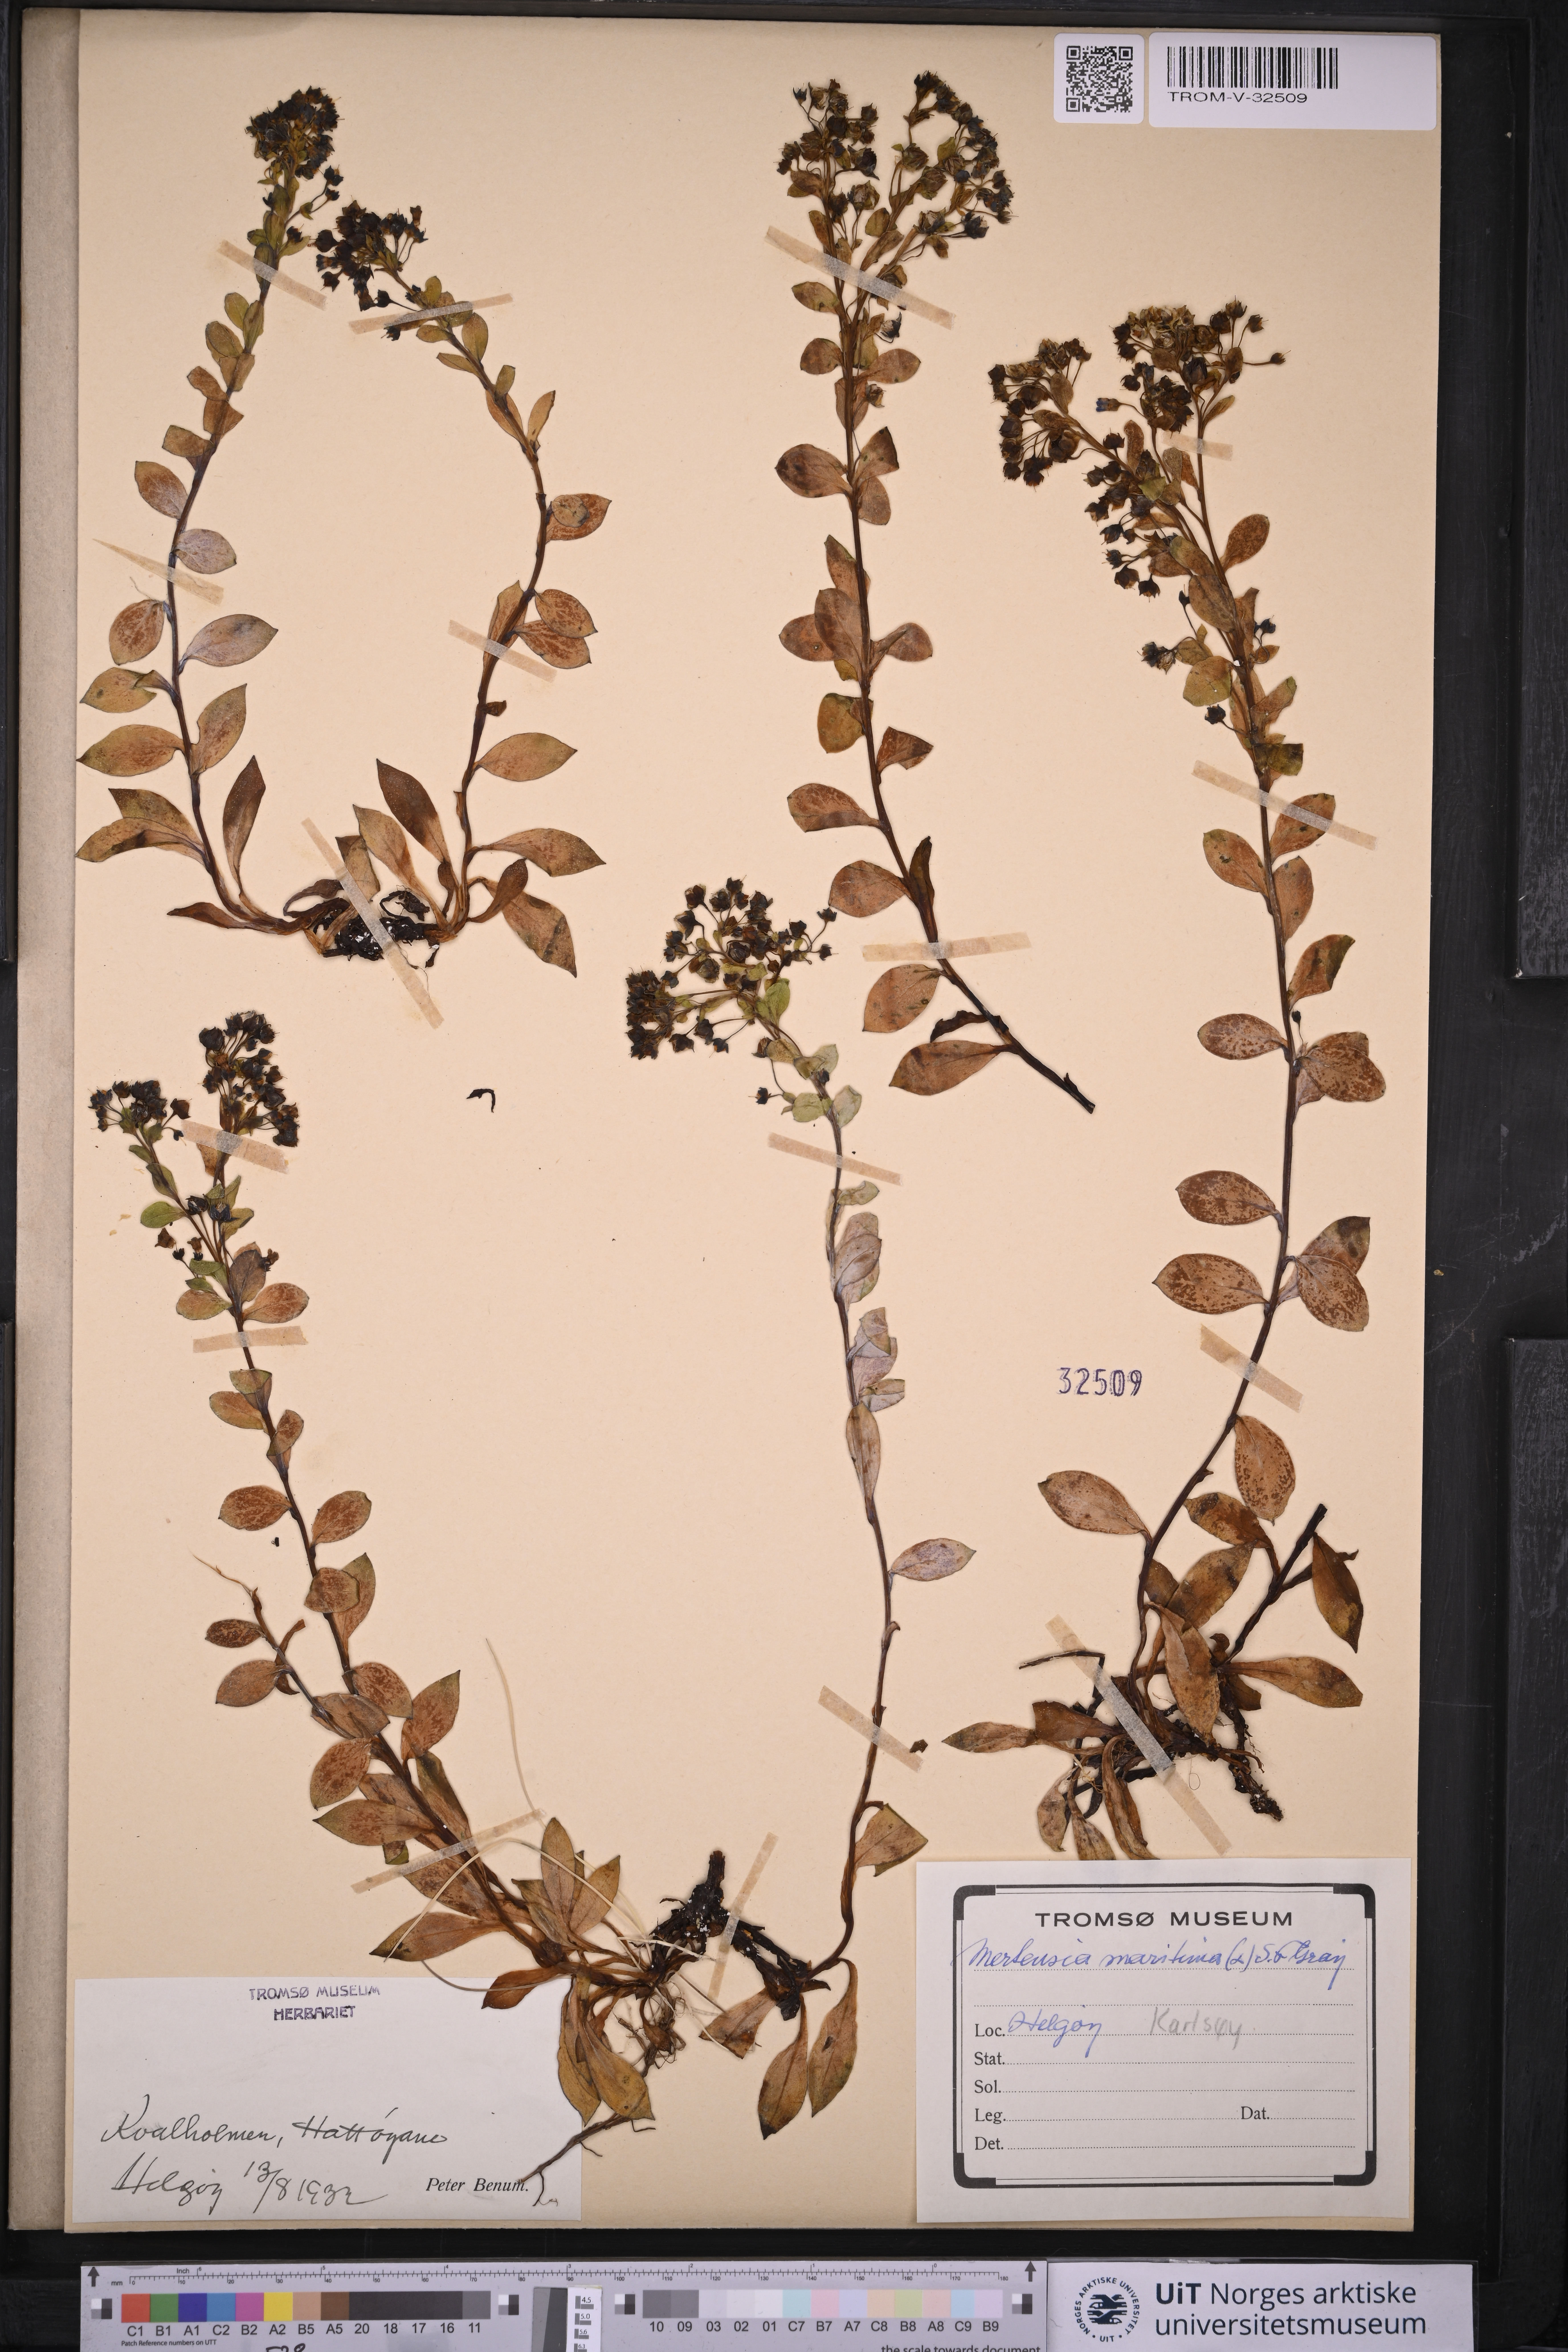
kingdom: Plantae
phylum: Tracheophyta
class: Magnoliopsida
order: Boraginales
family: Boraginaceae
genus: Mertensia
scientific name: Mertensia maritima
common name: Oysterplant
